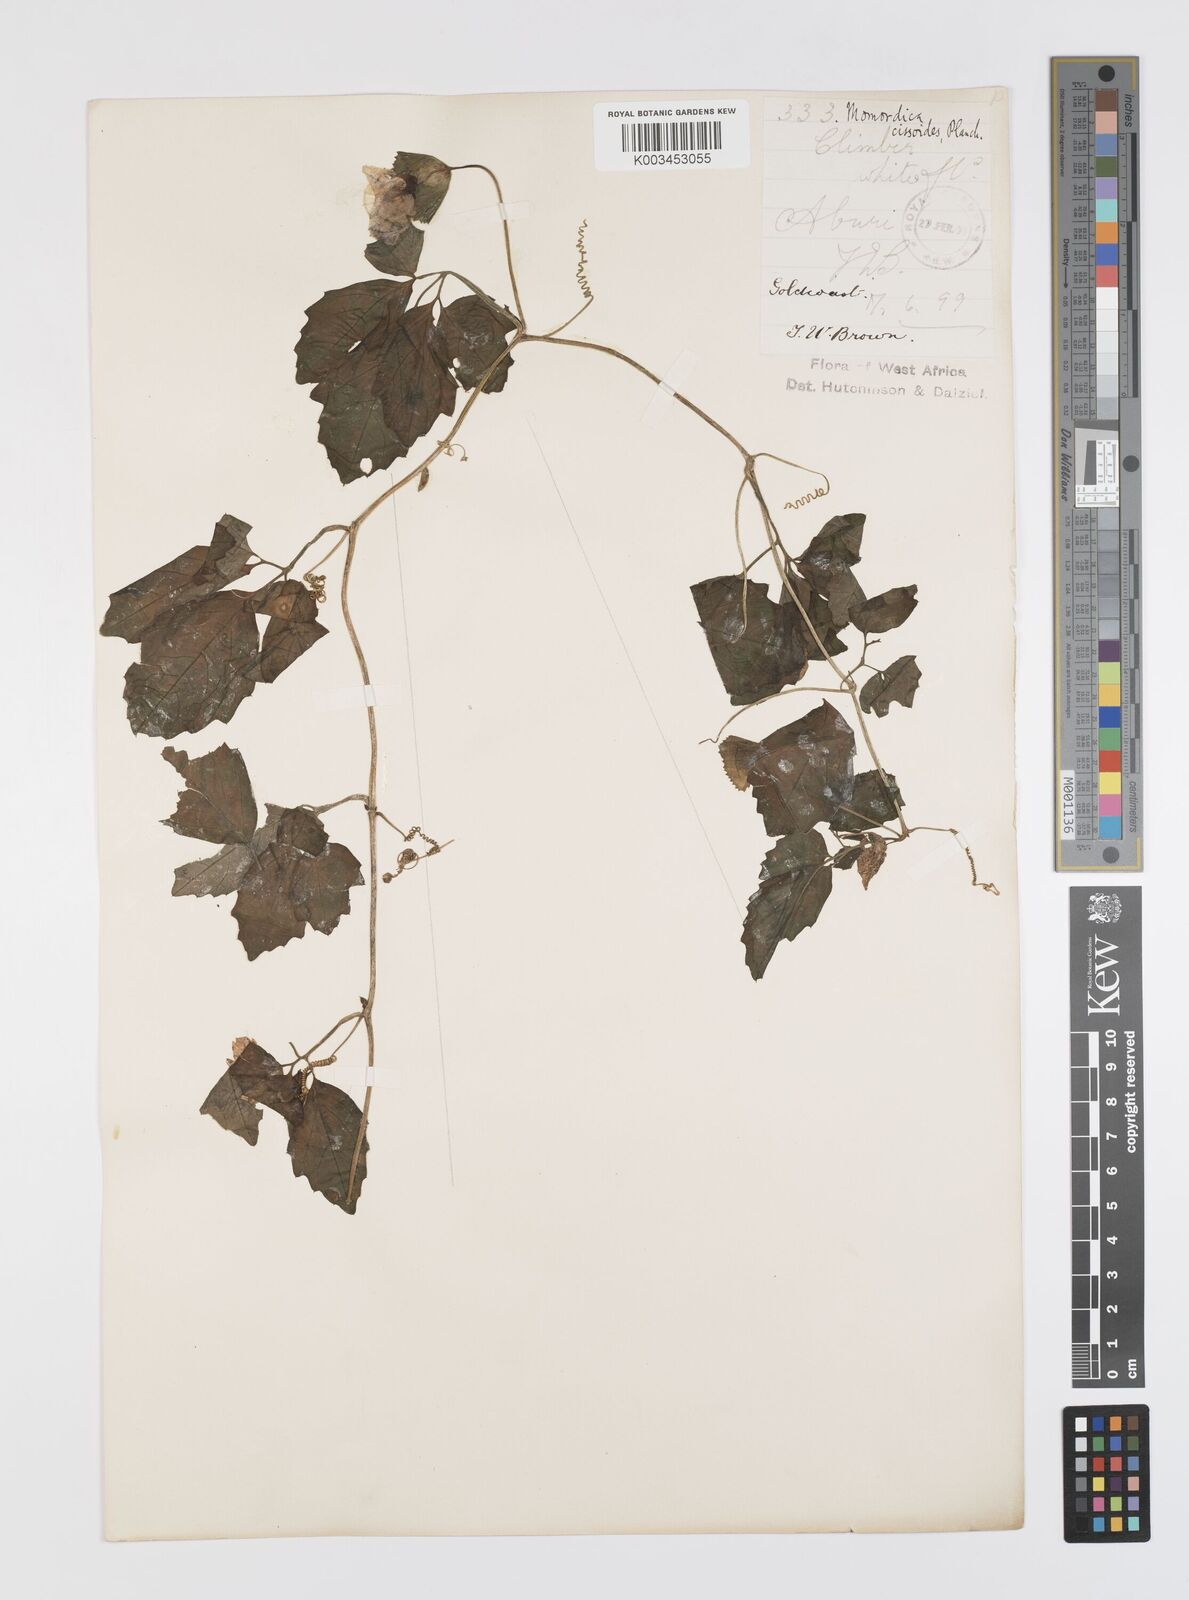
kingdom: Plantae
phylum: Tracheophyta
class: Magnoliopsida
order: Cucurbitales
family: Cucurbitaceae
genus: Momordica
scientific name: Momordica cissoides
